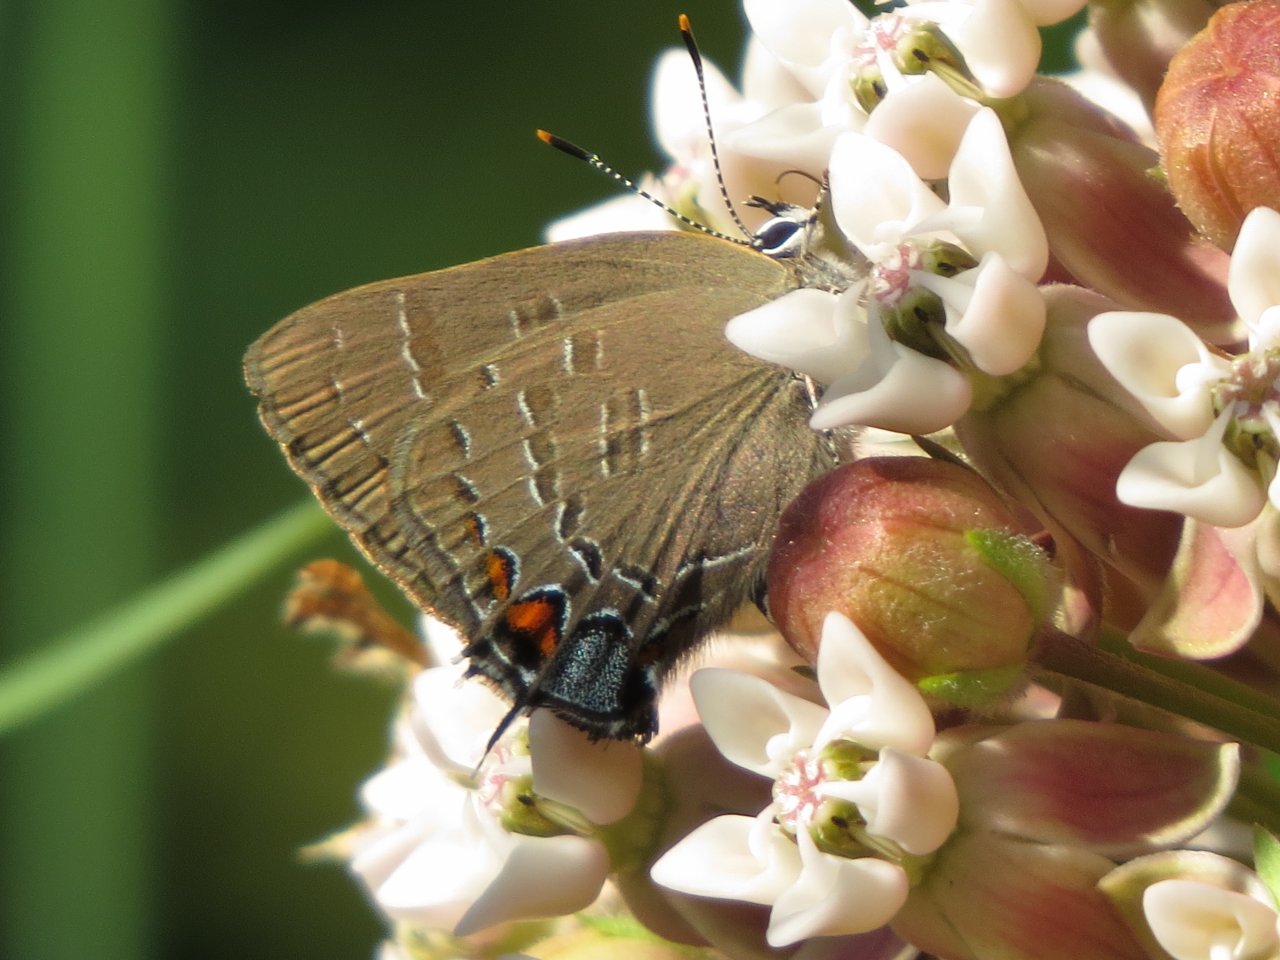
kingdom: Animalia
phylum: Arthropoda
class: Insecta
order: Lepidoptera
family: Lycaenidae
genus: Satyrium
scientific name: Satyrium calanus
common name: Banded Hairstreak
